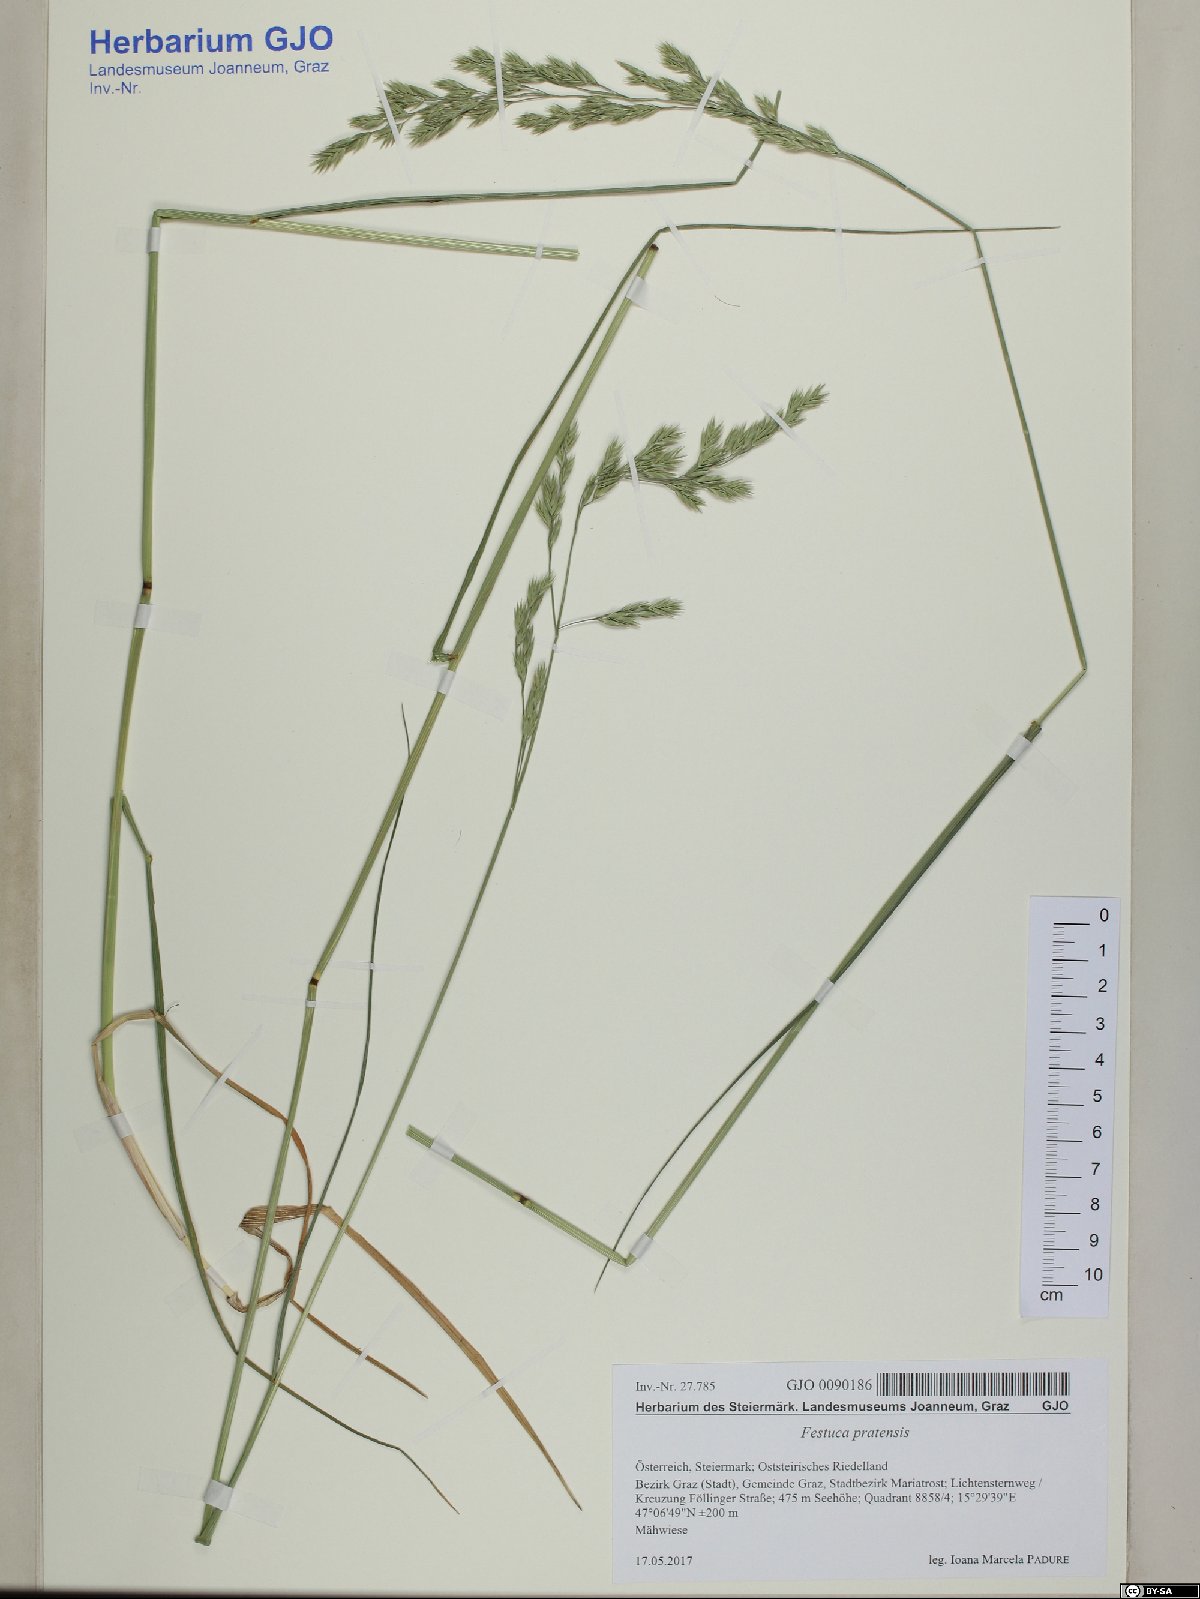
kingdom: Plantae
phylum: Tracheophyta
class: Liliopsida
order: Poales
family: Poaceae
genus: Lolium
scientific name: Lolium pratense
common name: Dover grass
